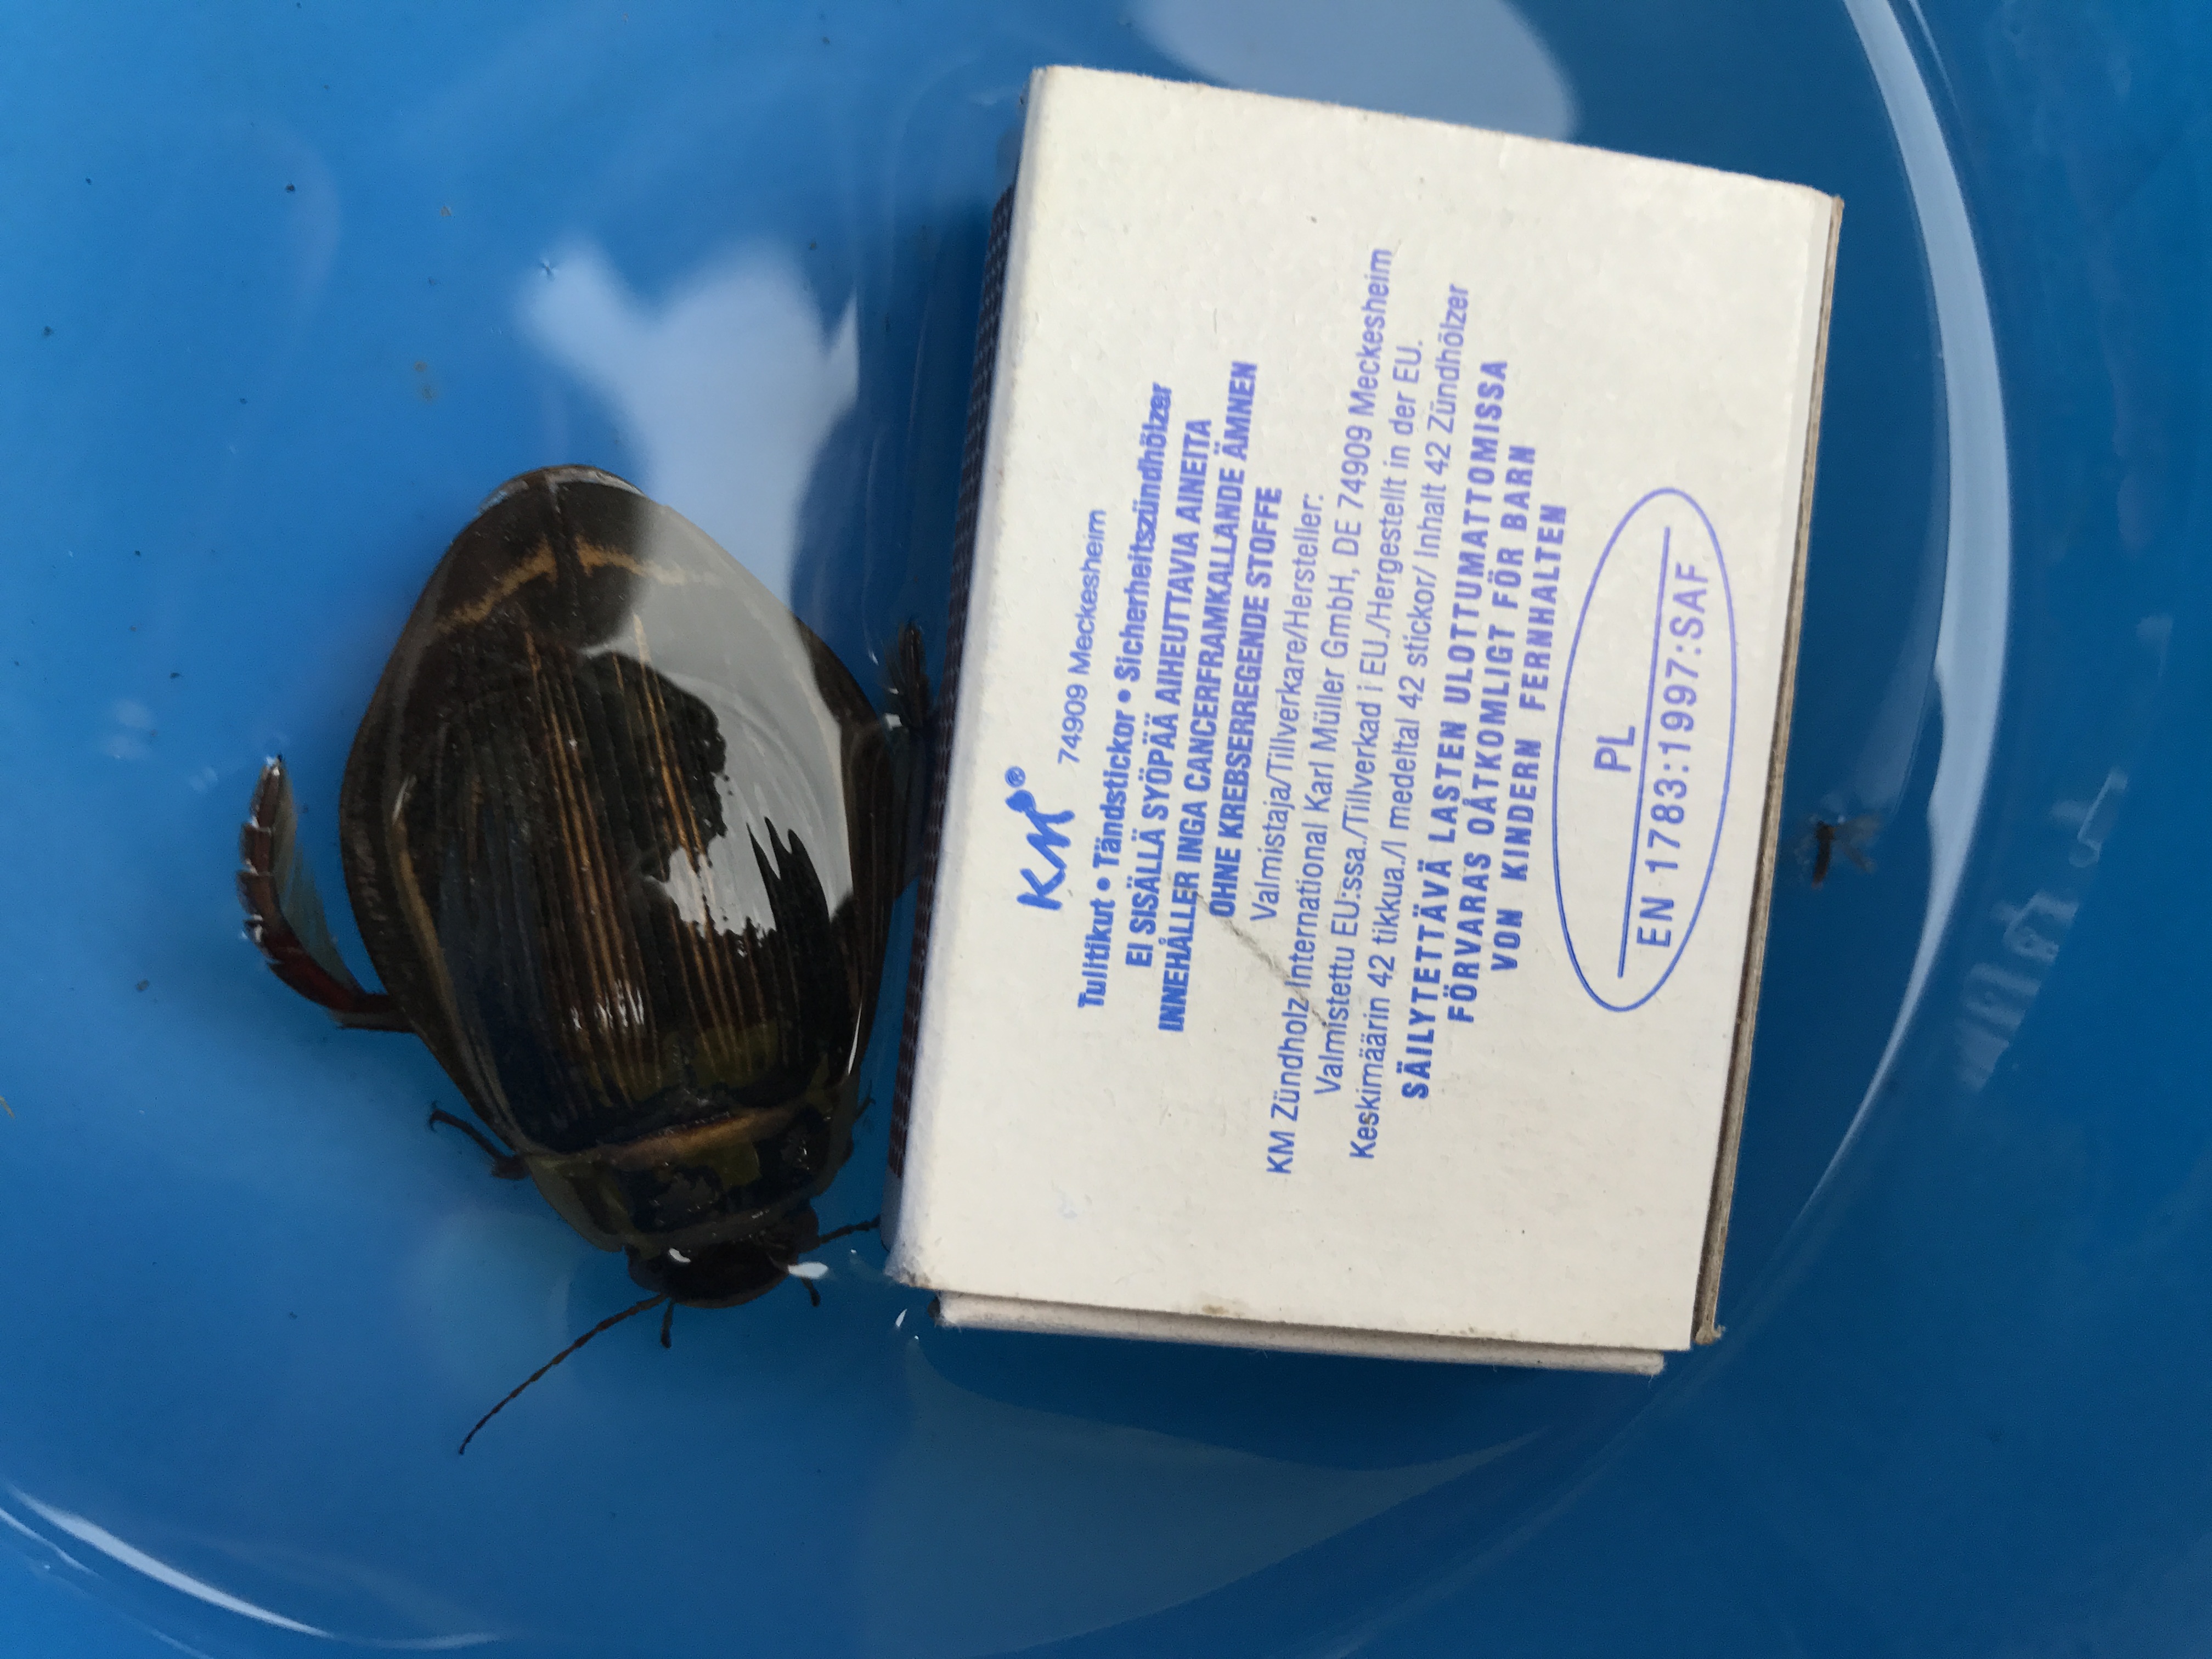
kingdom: Animalia
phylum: Arthropoda
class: Insecta
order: Coleoptera
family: Dytiscidae
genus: Dytiscus
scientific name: Dytiscus latissimus
